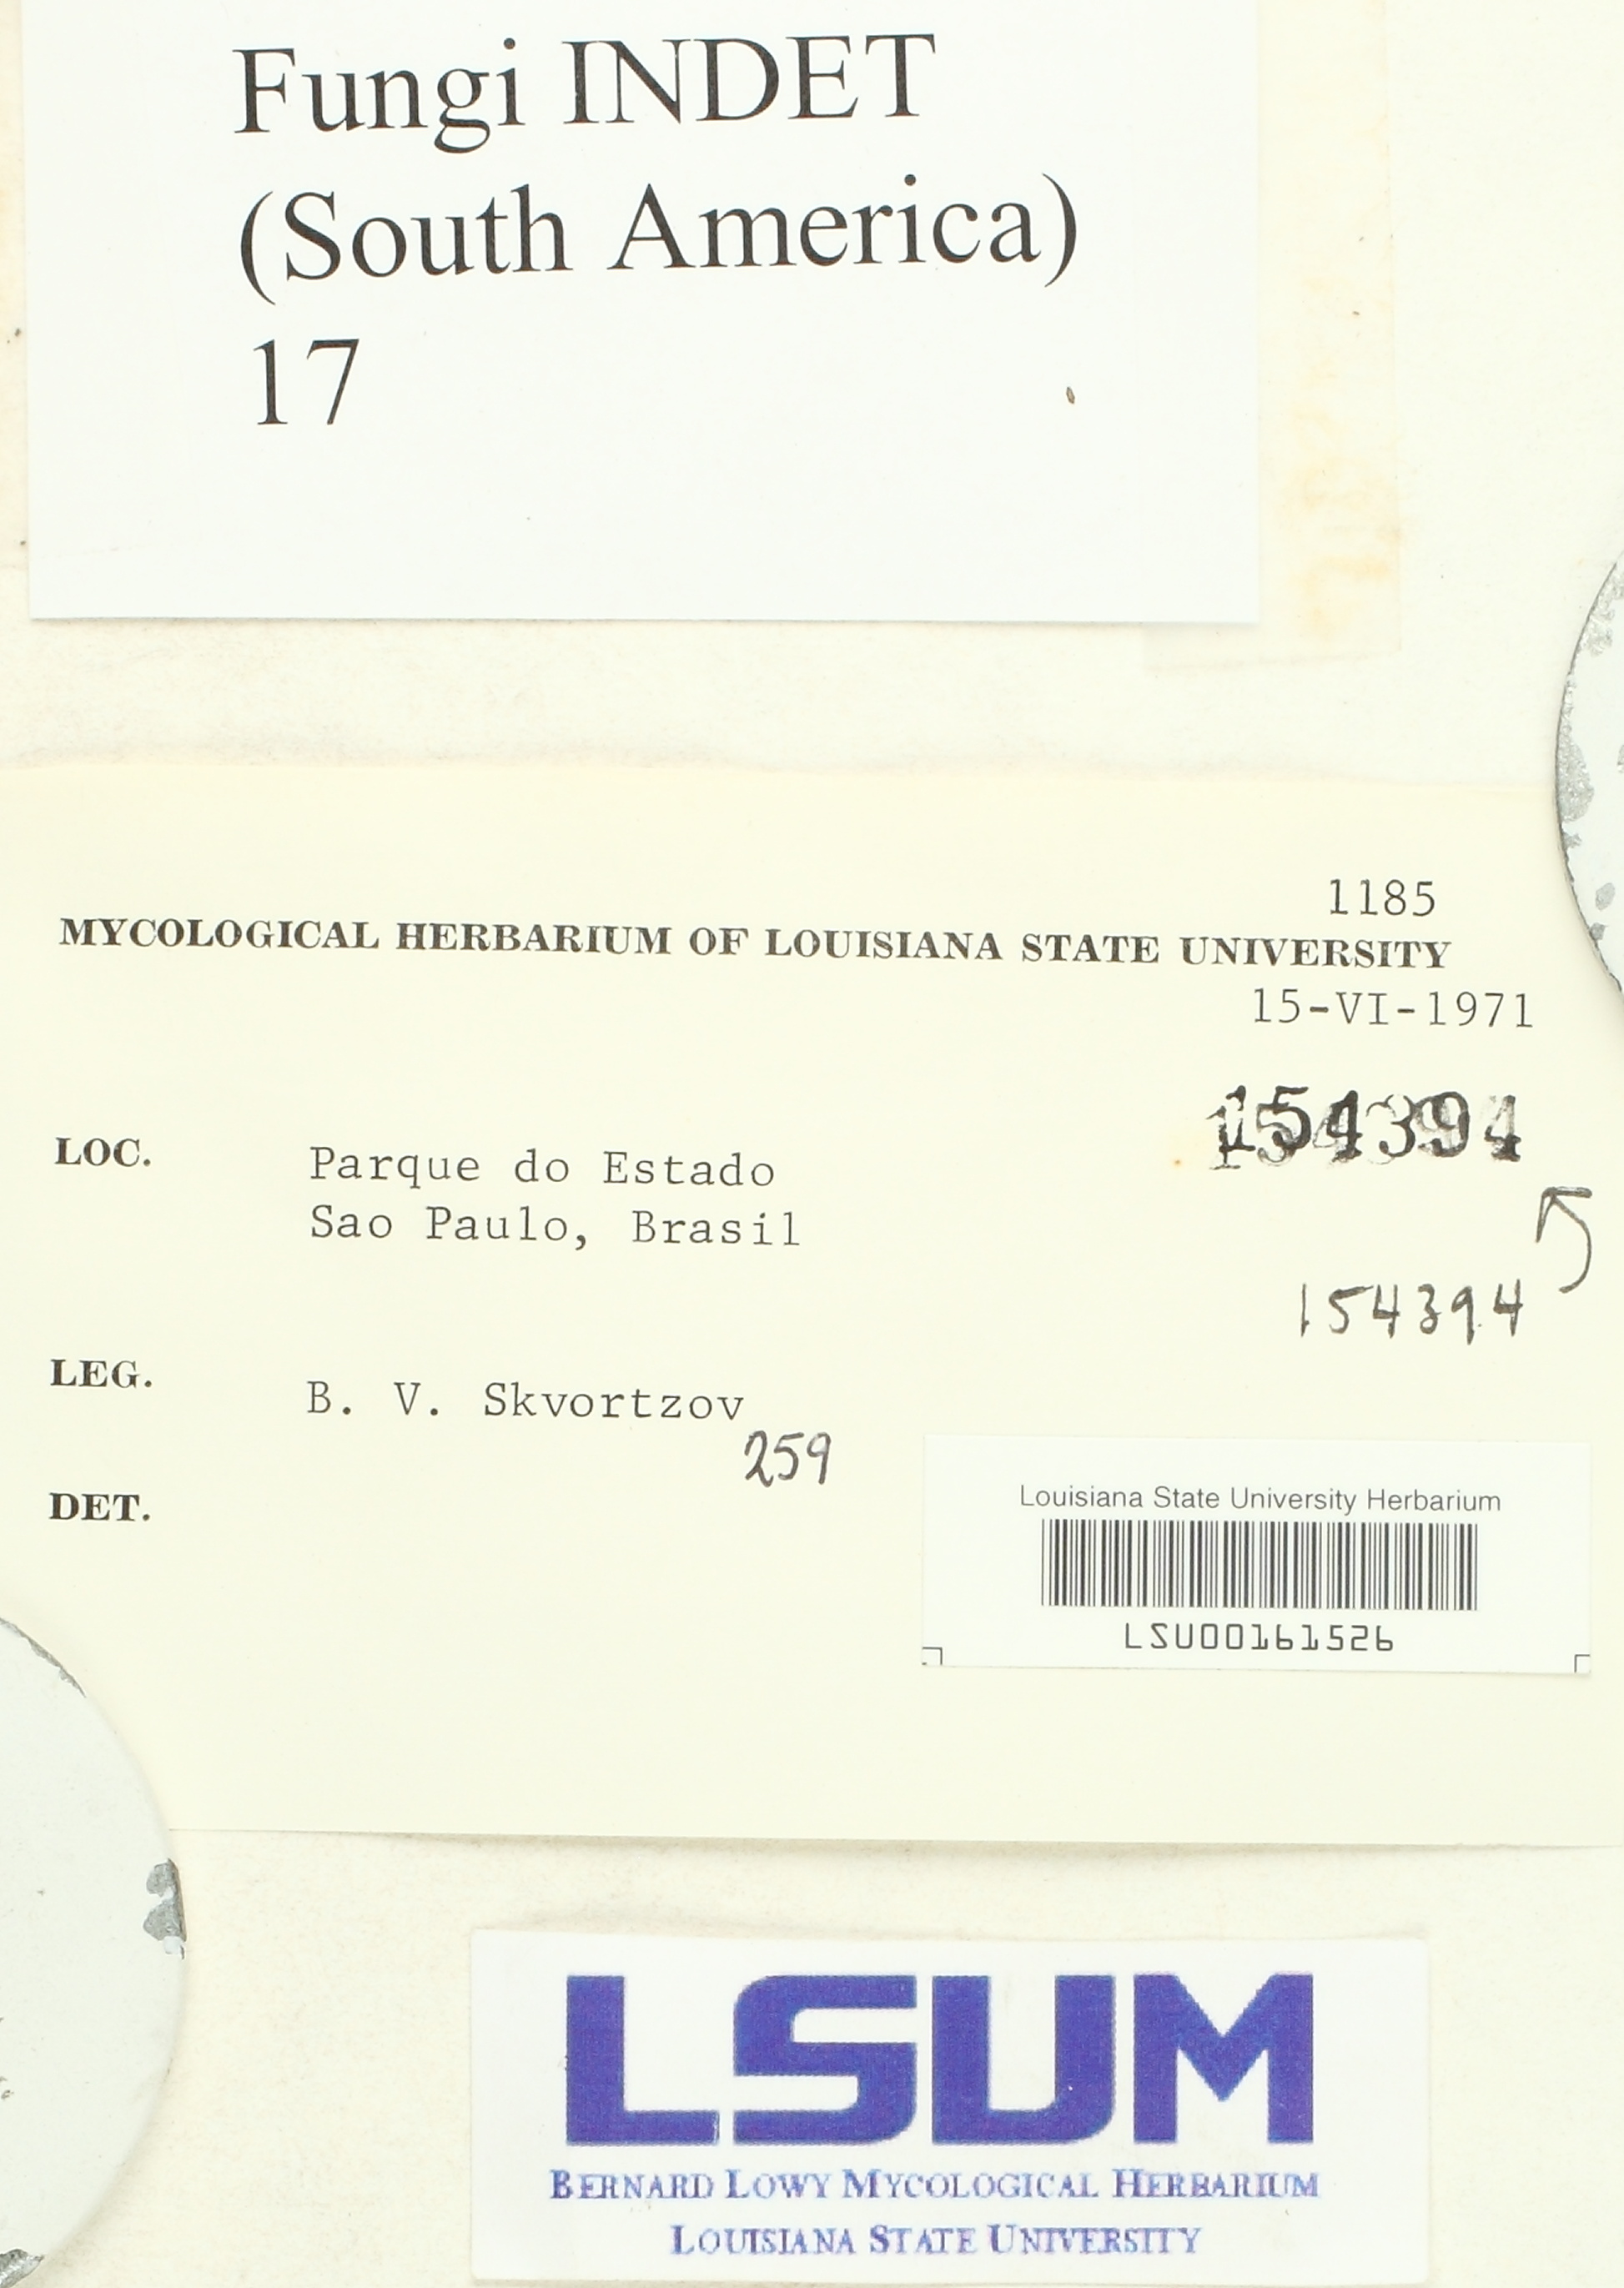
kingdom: Fungi
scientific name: Fungi
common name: Fungi
